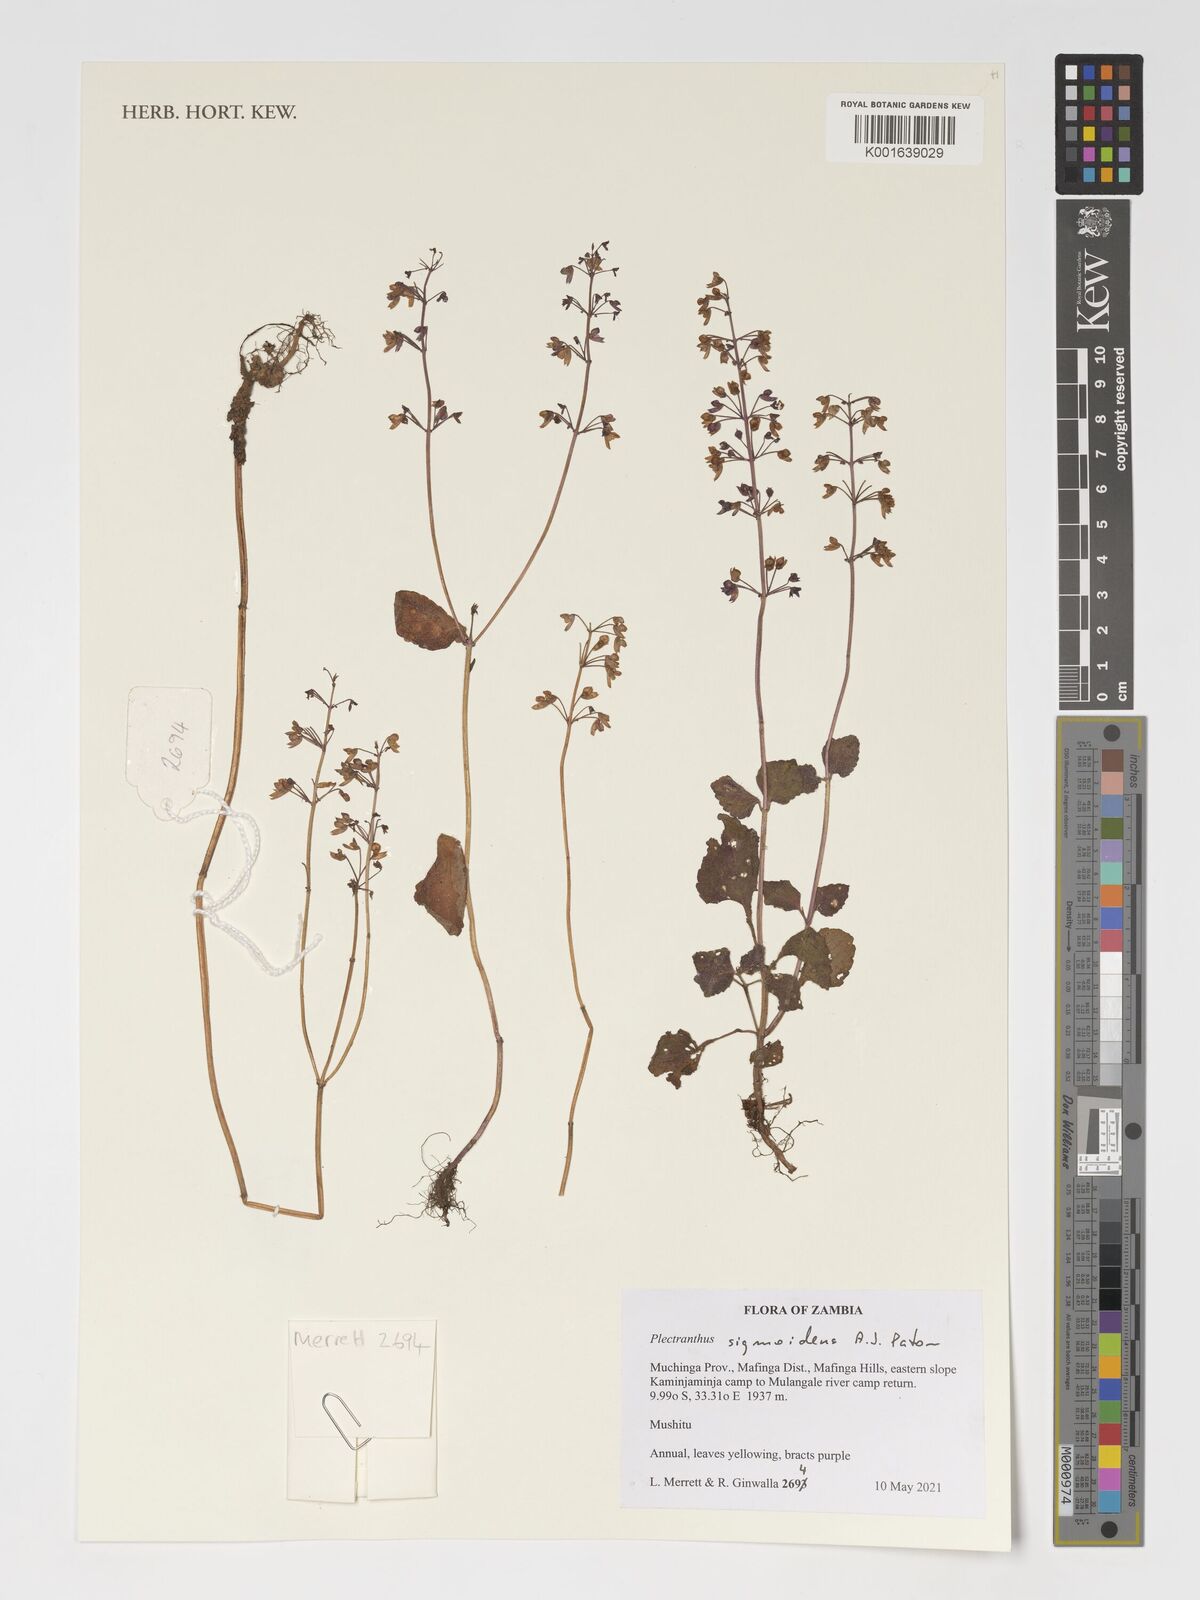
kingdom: Plantae
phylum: Tracheophyta
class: Magnoliopsida
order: Lamiales
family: Lamiaceae
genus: Coleus
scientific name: Coleus sigmoideus
